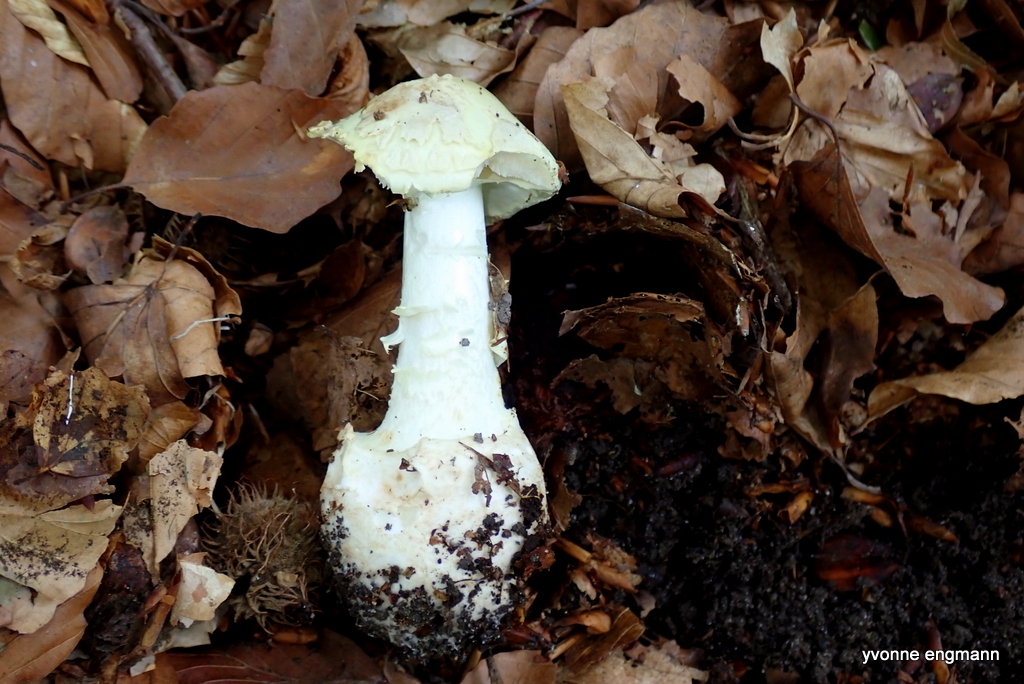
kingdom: Fungi
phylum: Basidiomycota
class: Agaricomycetes
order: Agaricales
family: Amanitaceae
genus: Amanita
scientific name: Amanita citrina
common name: False death-cap
